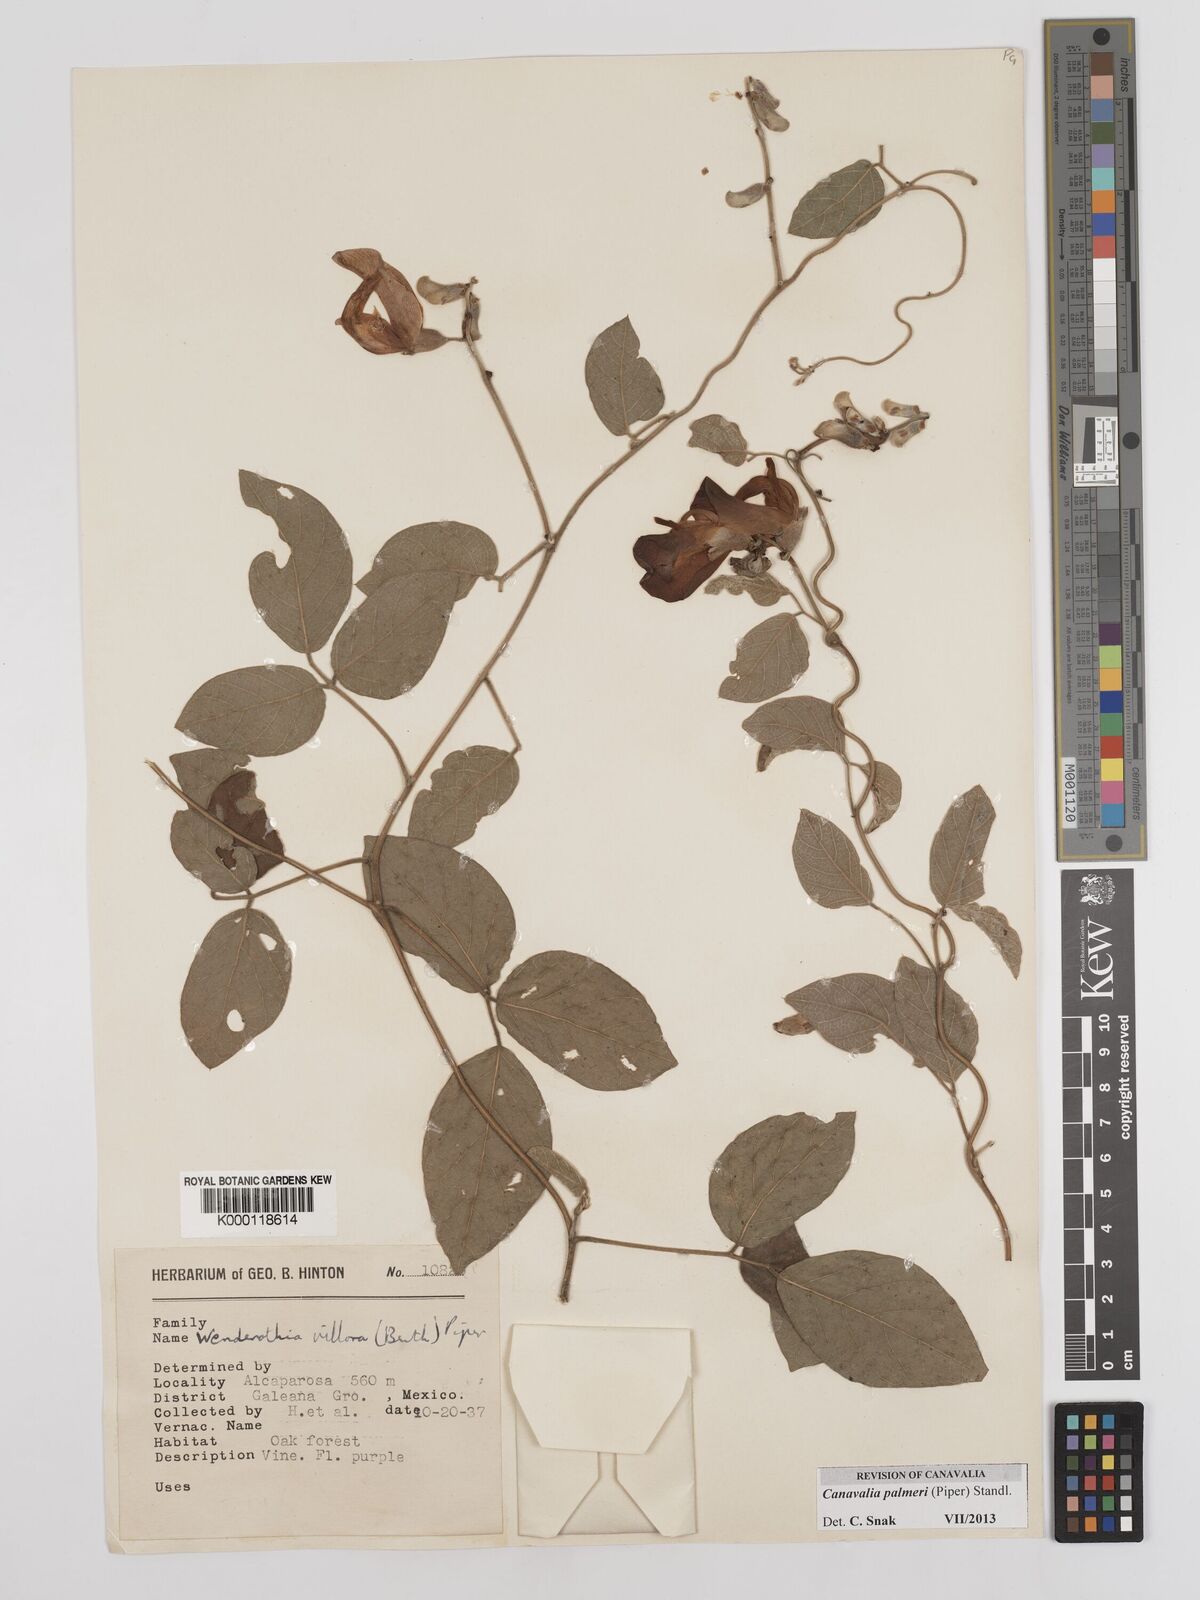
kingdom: Plantae
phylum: Tracheophyta
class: Magnoliopsida
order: Fabales
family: Fabaceae
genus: Canavalia
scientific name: Canavalia palmeri
